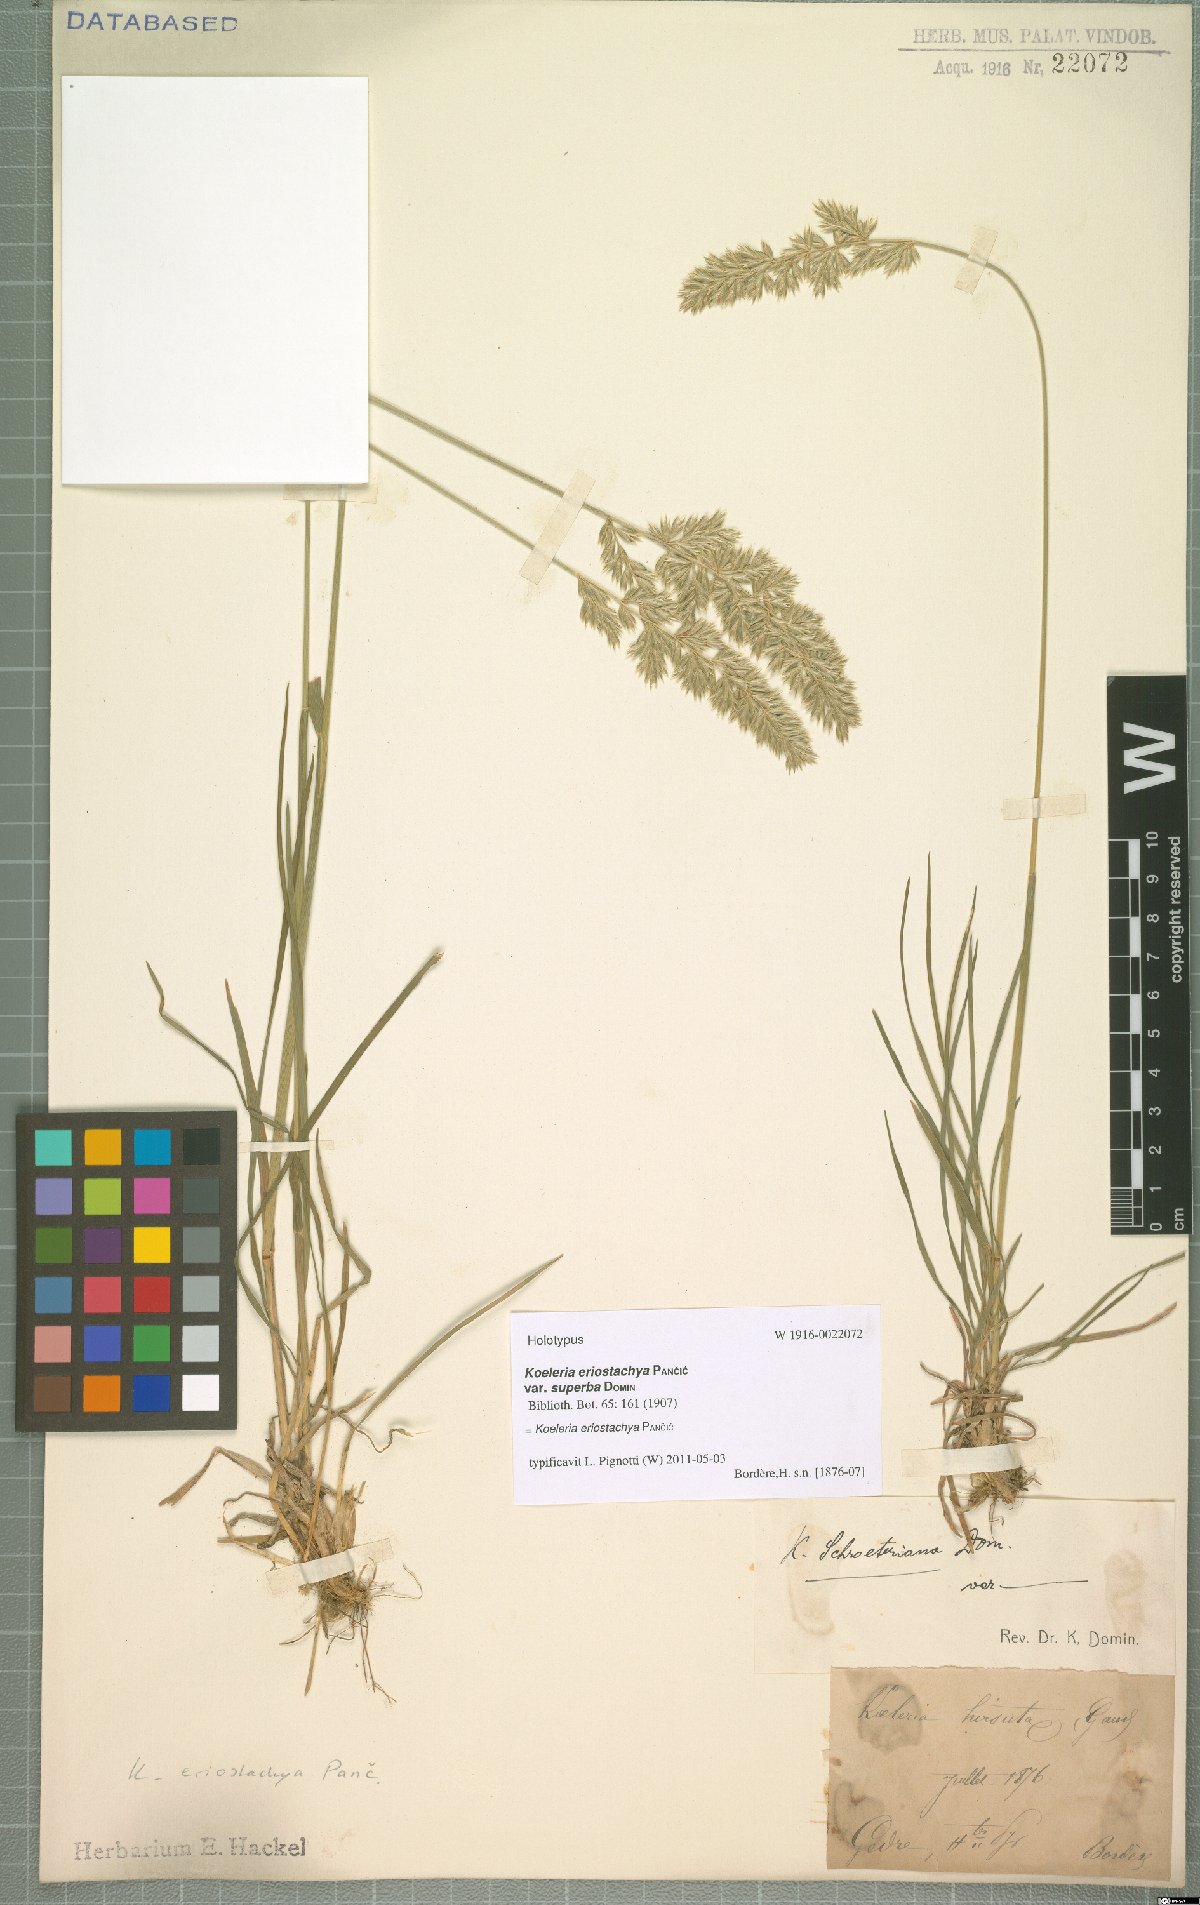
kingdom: Plantae
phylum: Tracheophyta
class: Liliopsida
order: Poales
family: Poaceae
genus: Koeleria
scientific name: Koeleria eriostachya
